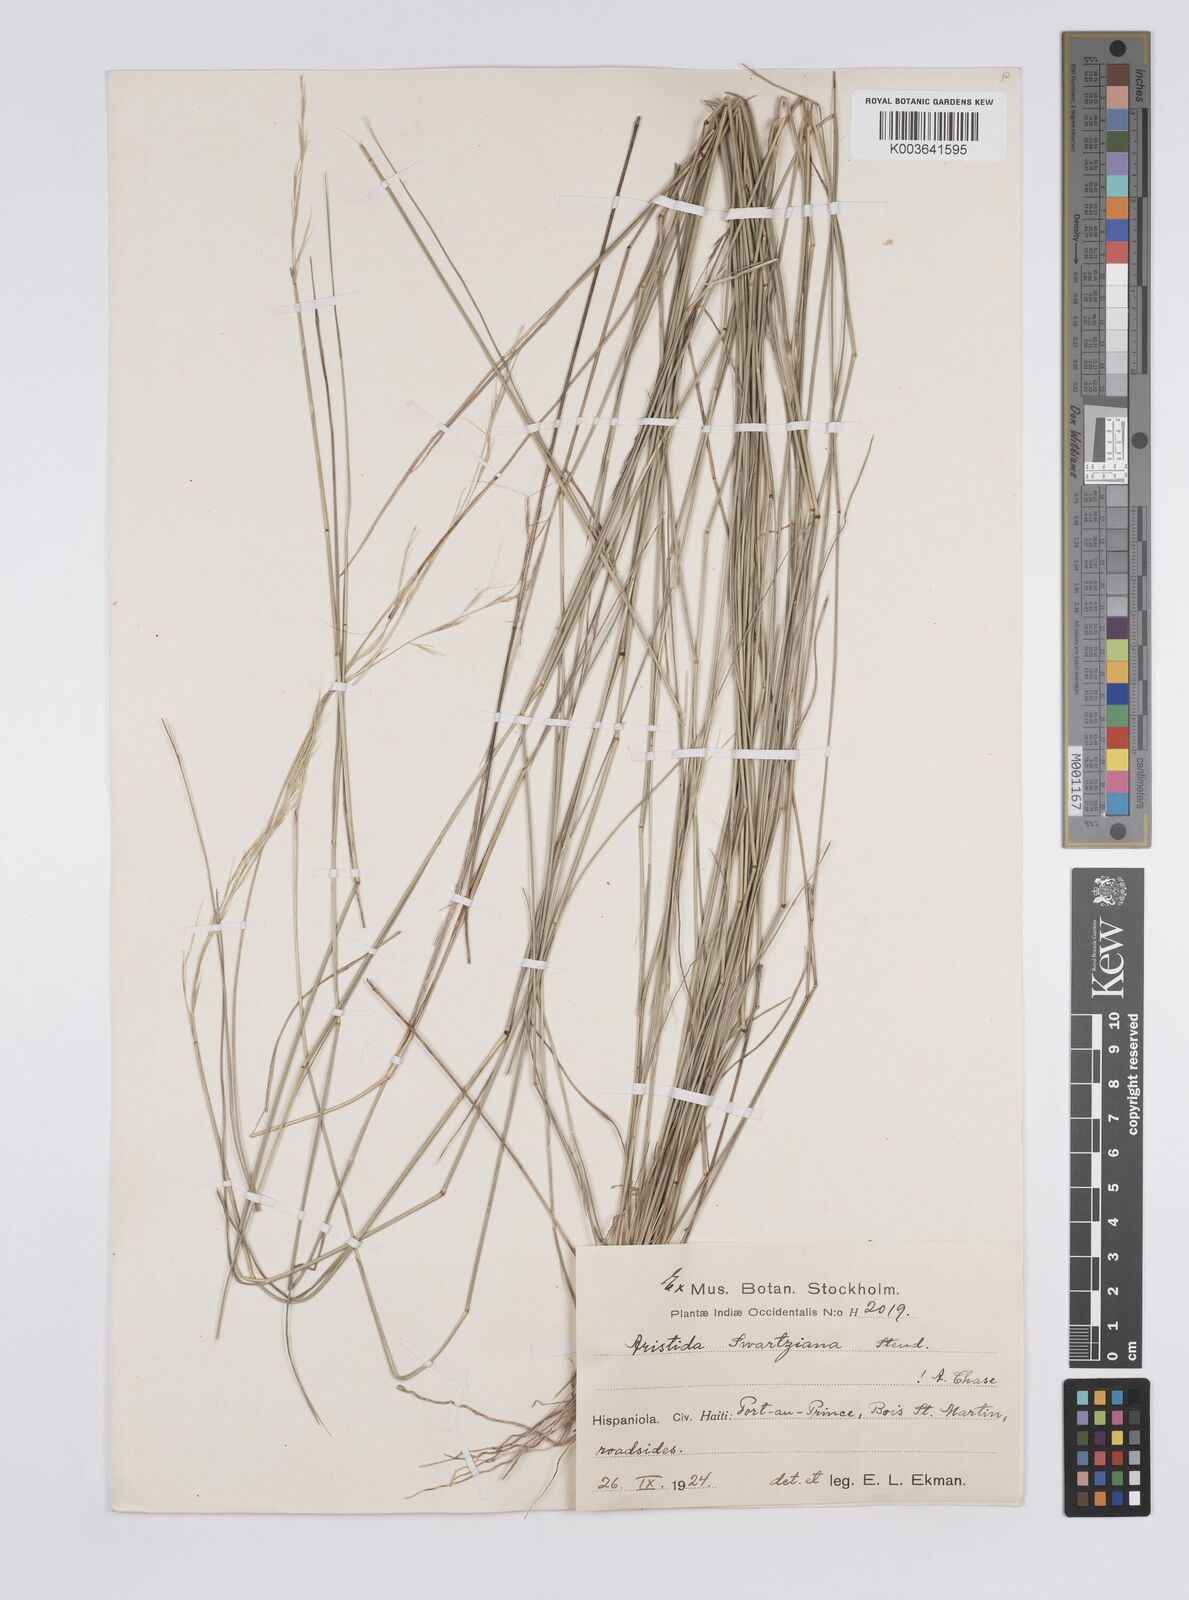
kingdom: Plantae
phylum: Tracheophyta
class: Liliopsida
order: Poales
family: Poaceae
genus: Aristida
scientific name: Aristida adscensionis
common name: Sixweeks threeawn
